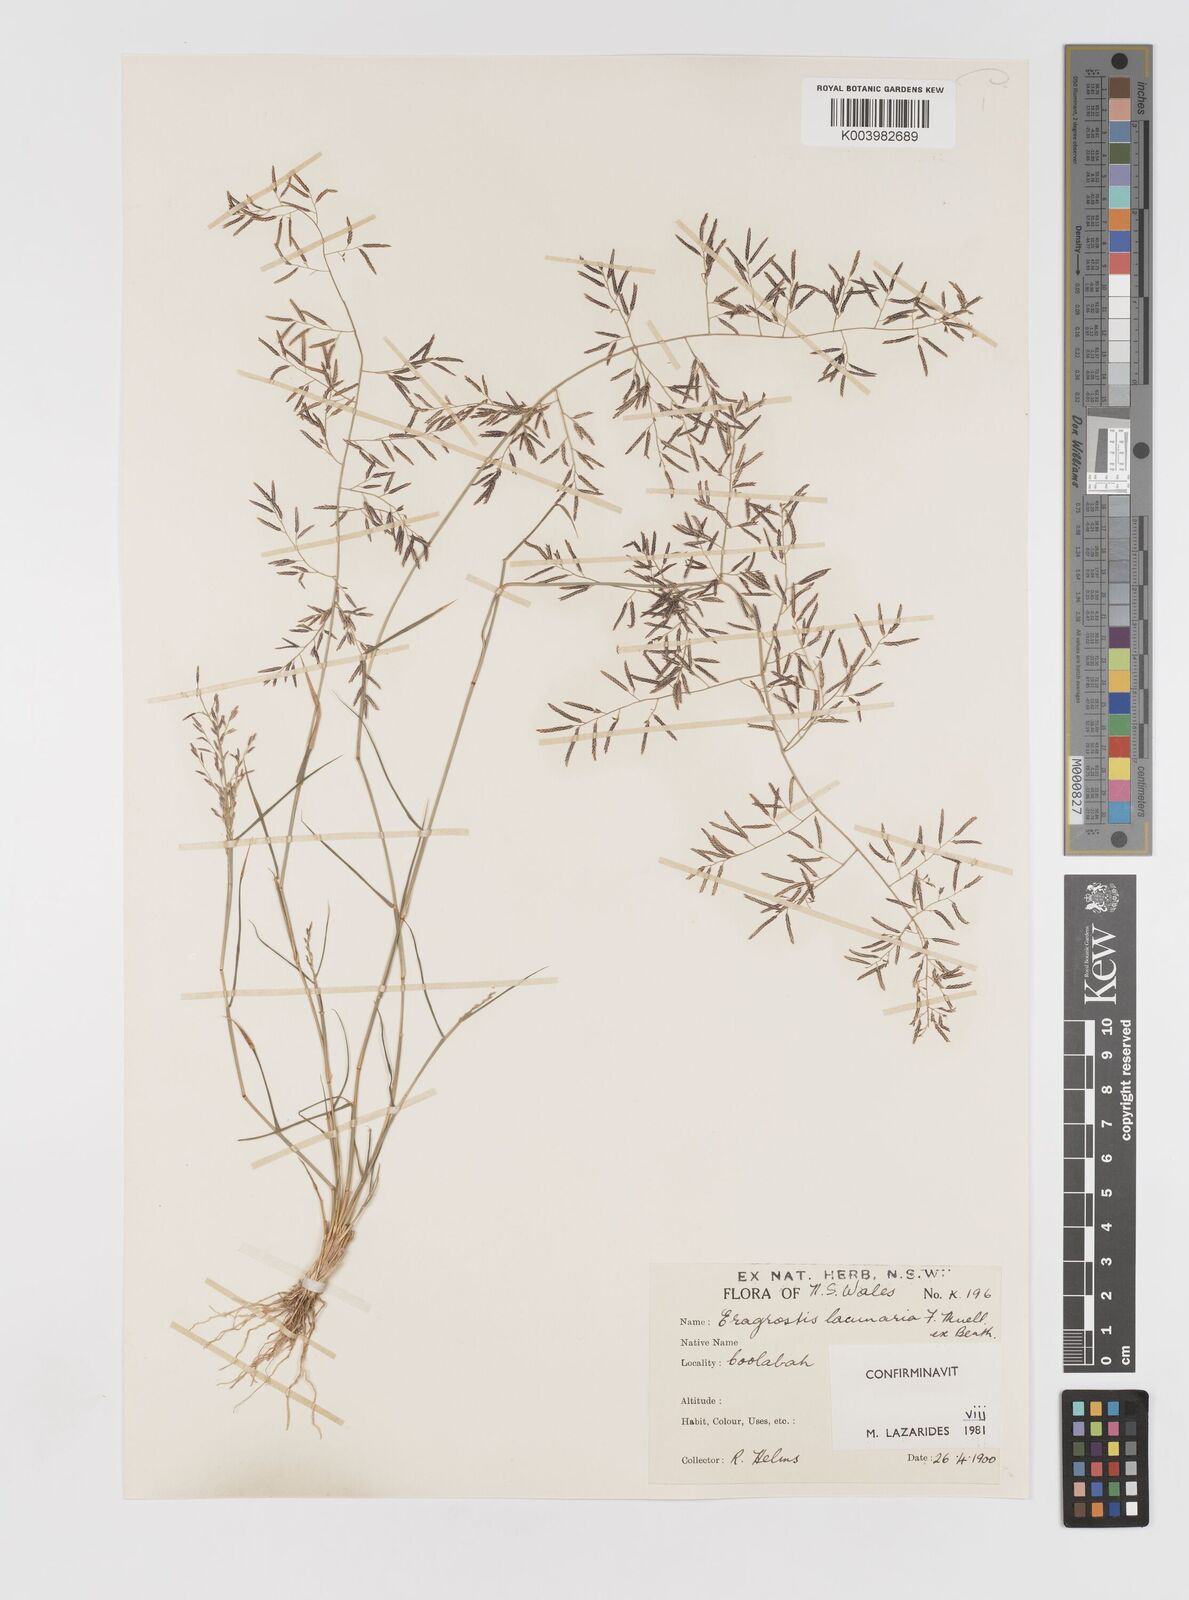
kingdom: Plantae
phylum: Tracheophyta
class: Liliopsida
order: Poales
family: Poaceae
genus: Eragrostis
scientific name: Eragrostis lacunaria
